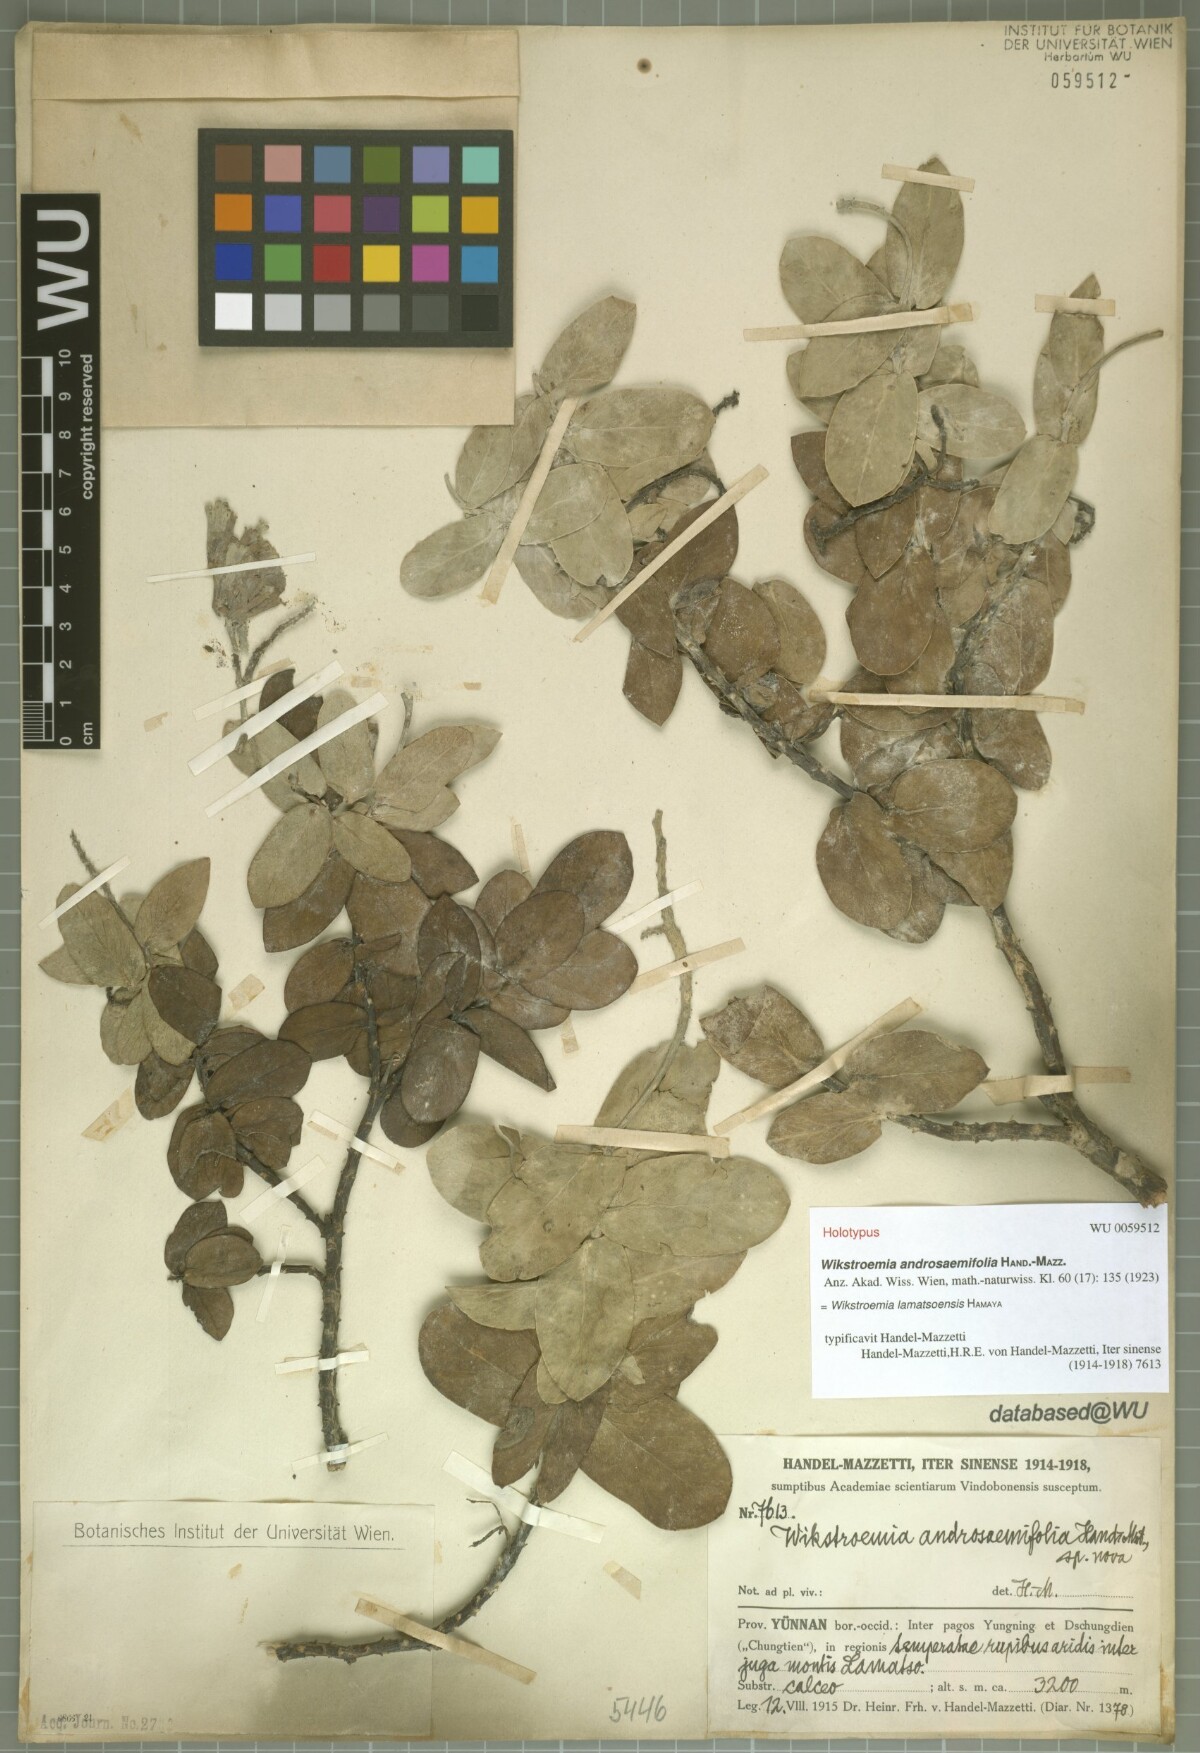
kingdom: Plantae
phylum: Tracheophyta
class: Magnoliopsida
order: Malvales
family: Thymelaeaceae
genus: Wikstroemia
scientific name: Wikstroemia lamatsoensis
